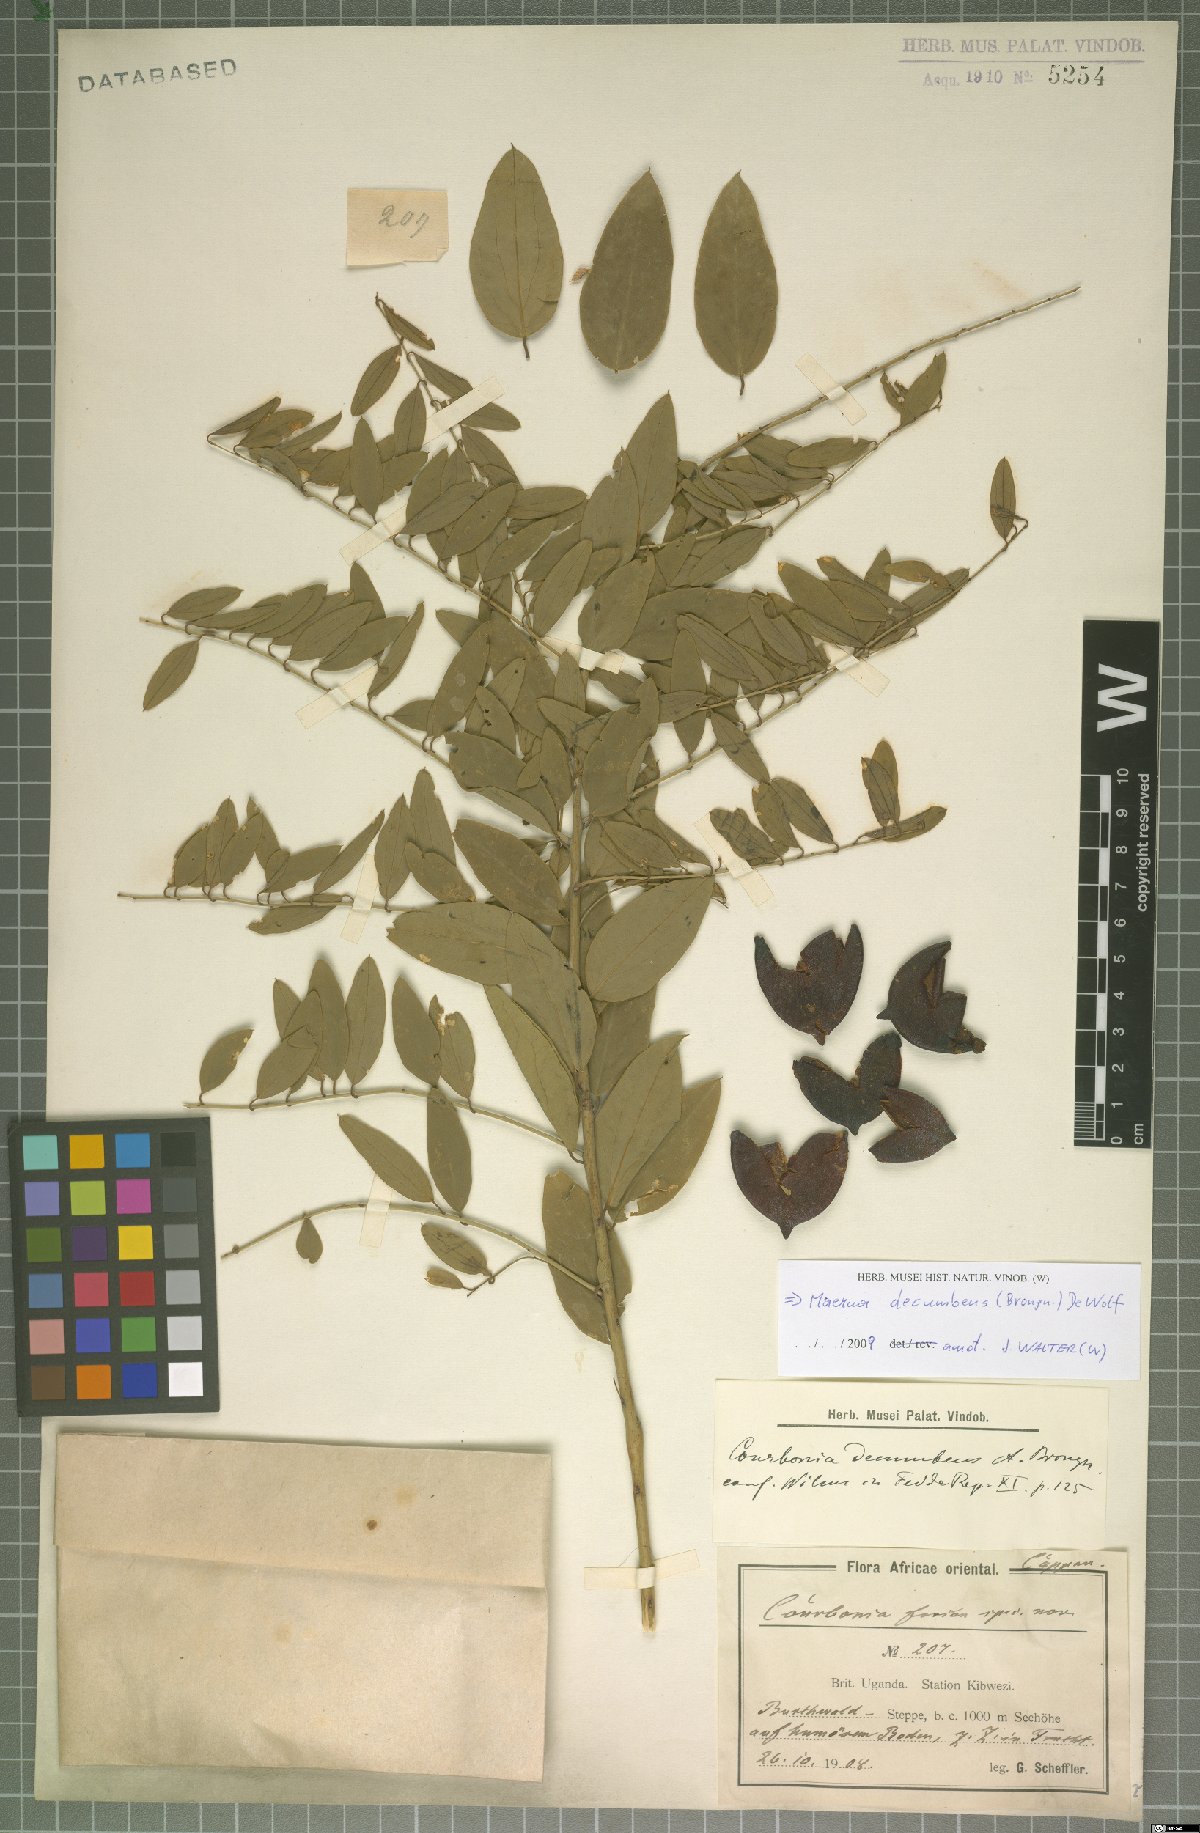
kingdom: Plantae
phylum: Tracheophyta
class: Magnoliopsida
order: Brassicales
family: Capparaceae
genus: Maerua
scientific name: Maerua decumbens
